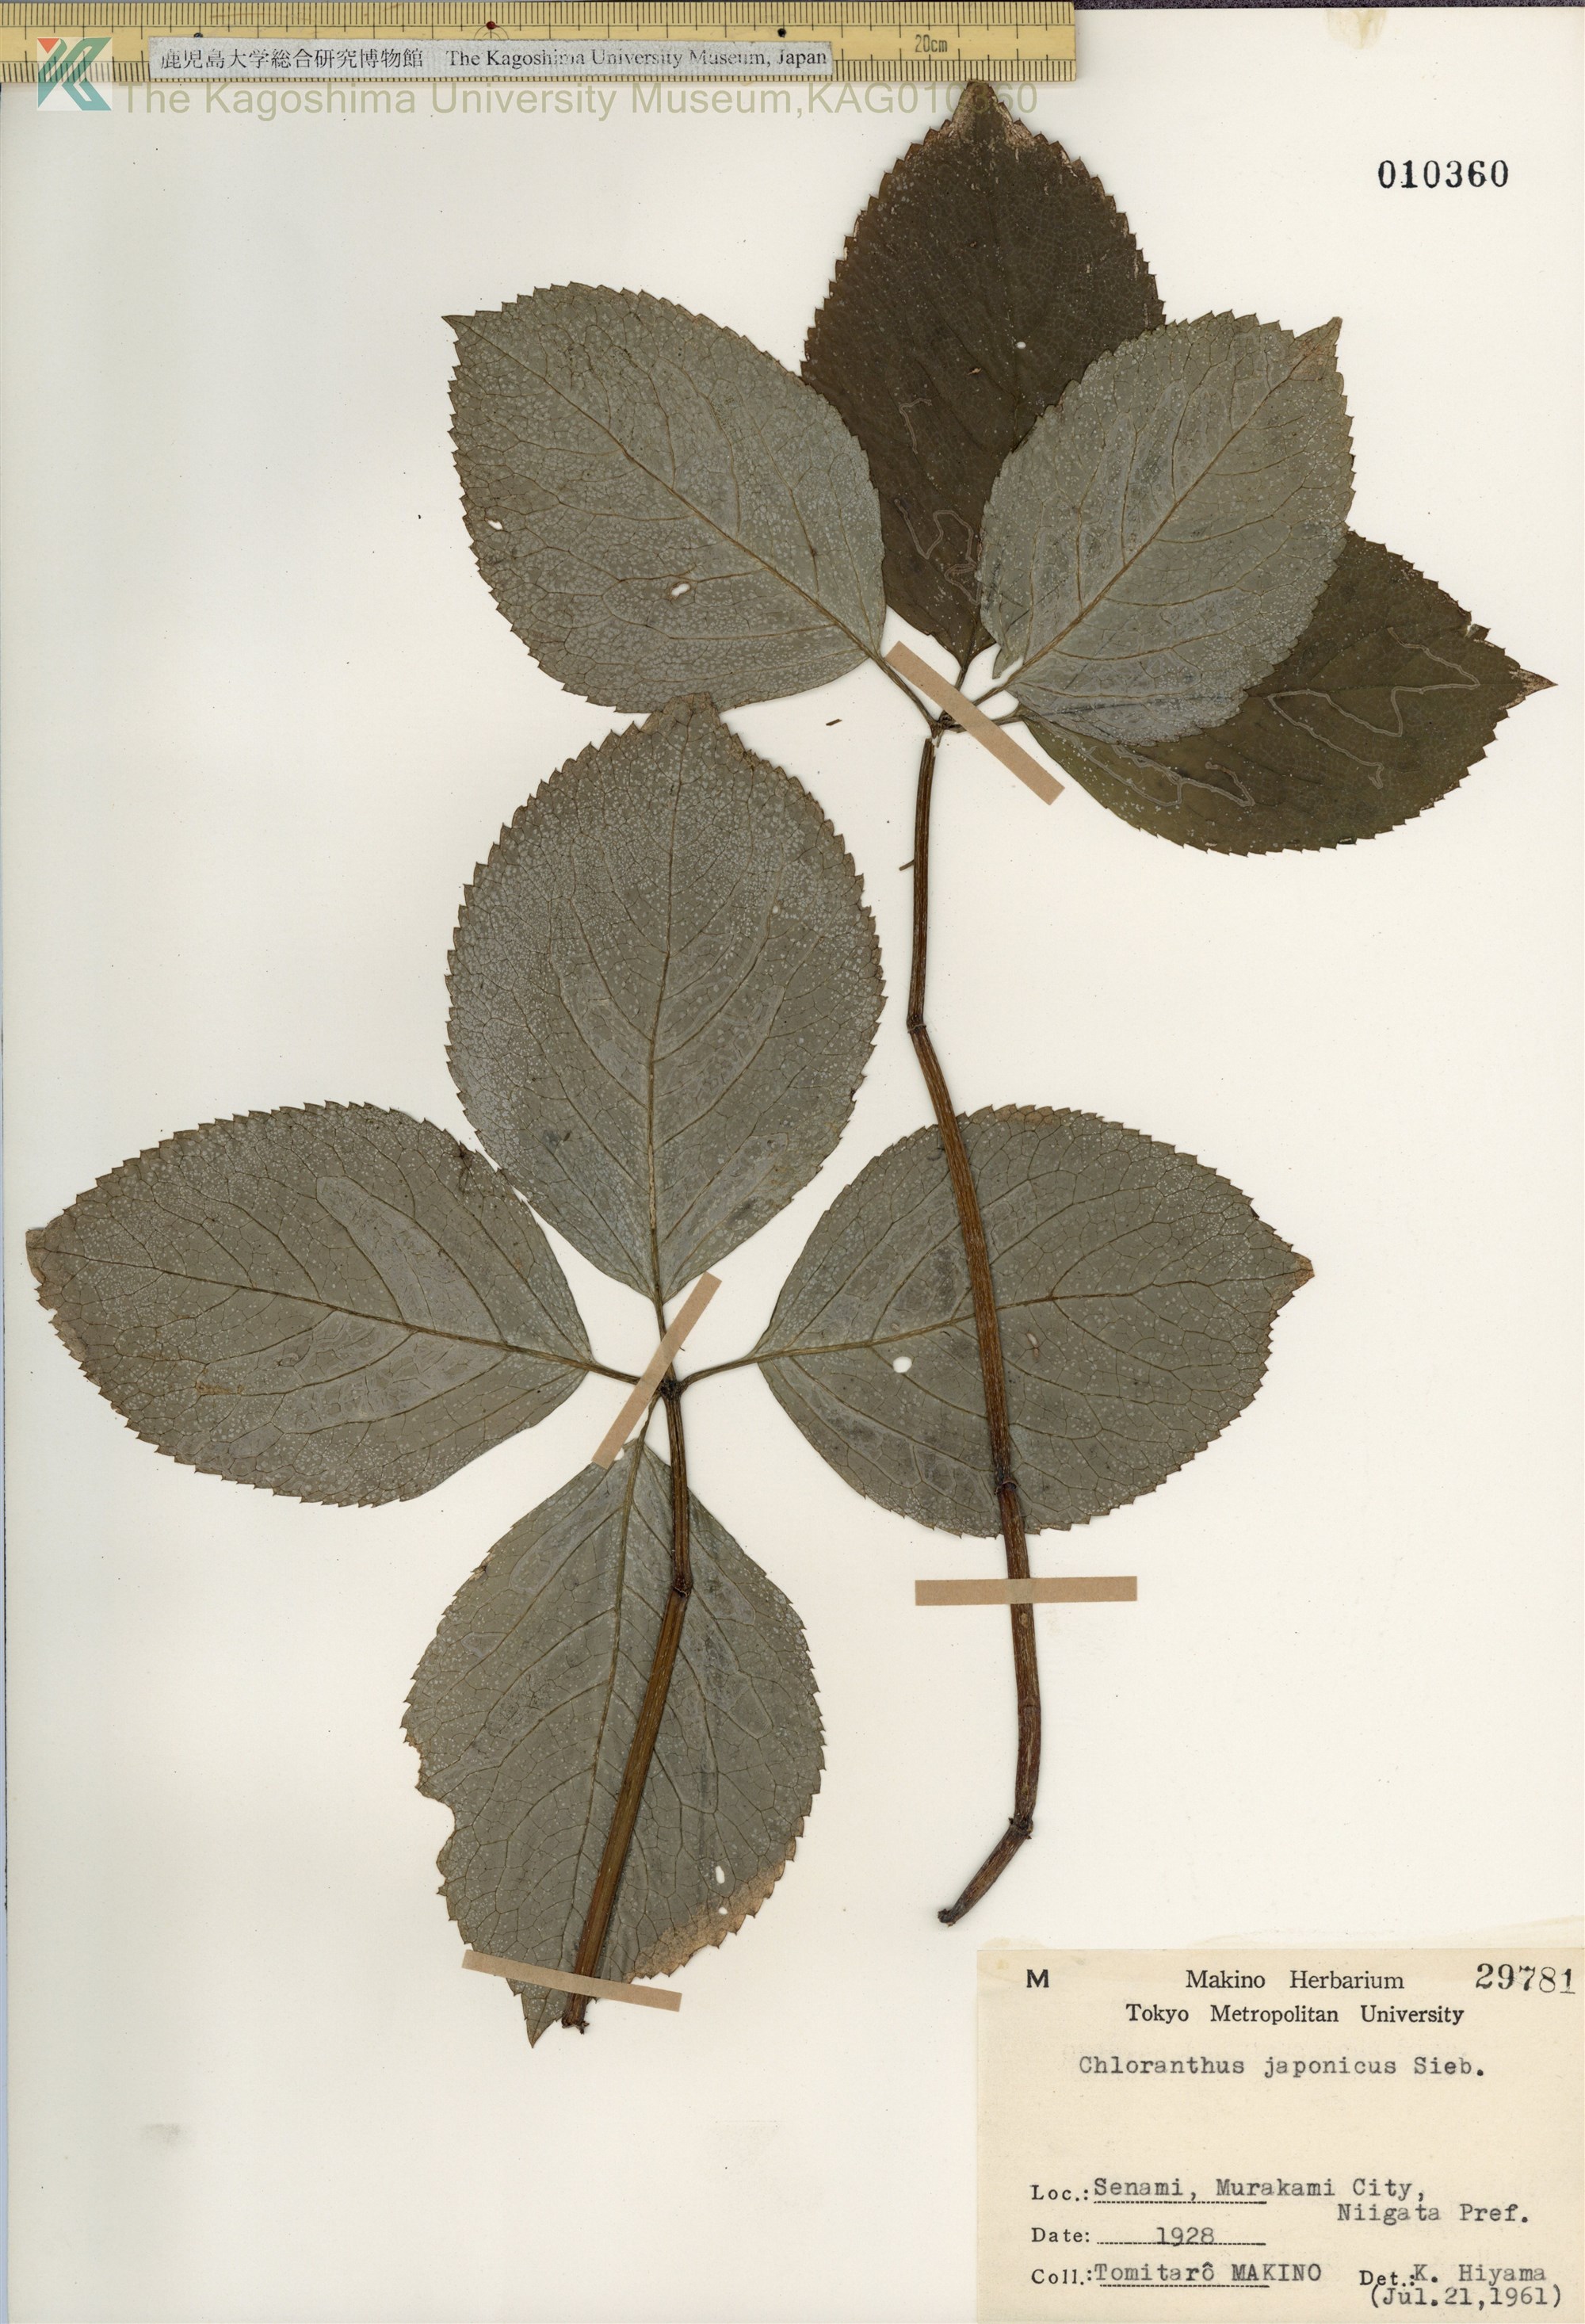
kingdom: Plantae
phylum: Tracheophyta
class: Magnoliopsida
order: Chloranthales
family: Chloranthaceae
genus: Chloranthus
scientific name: Chloranthus japonicus
